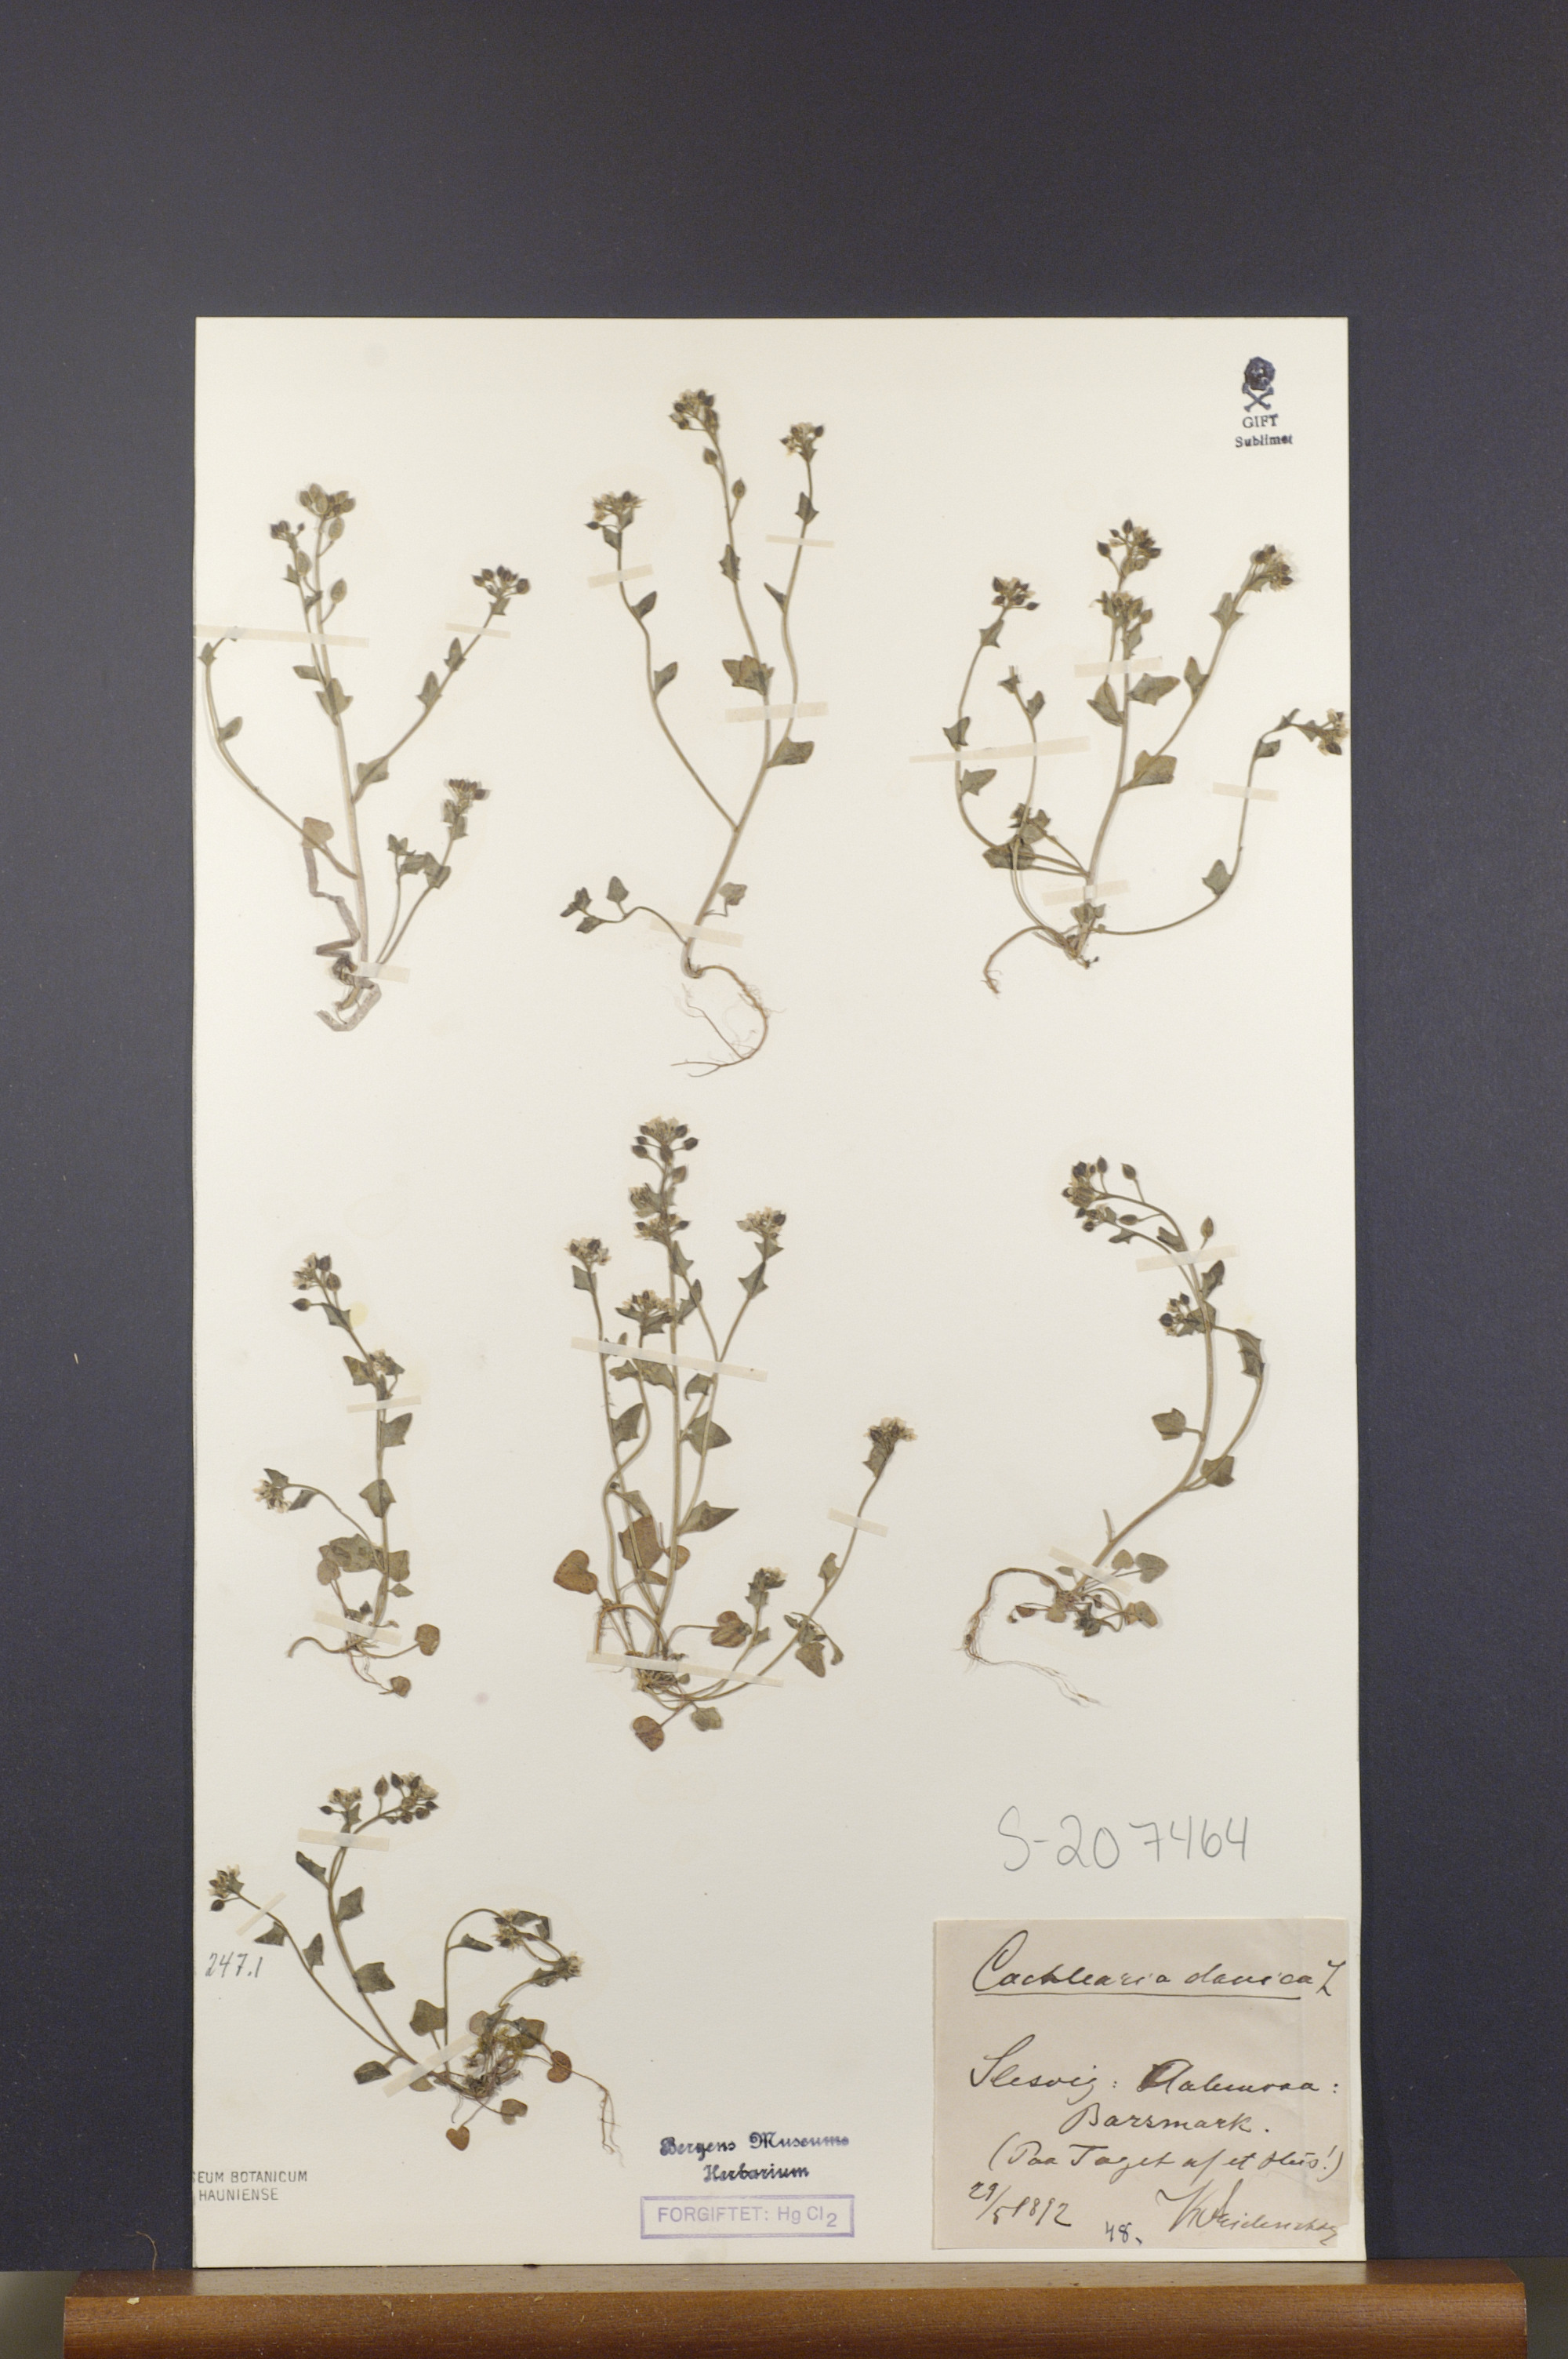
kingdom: Plantae
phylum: Tracheophyta
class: Magnoliopsida
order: Brassicales
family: Brassicaceae
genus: Cochlearia
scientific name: Cochlearia danica
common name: Early scurvygrass
